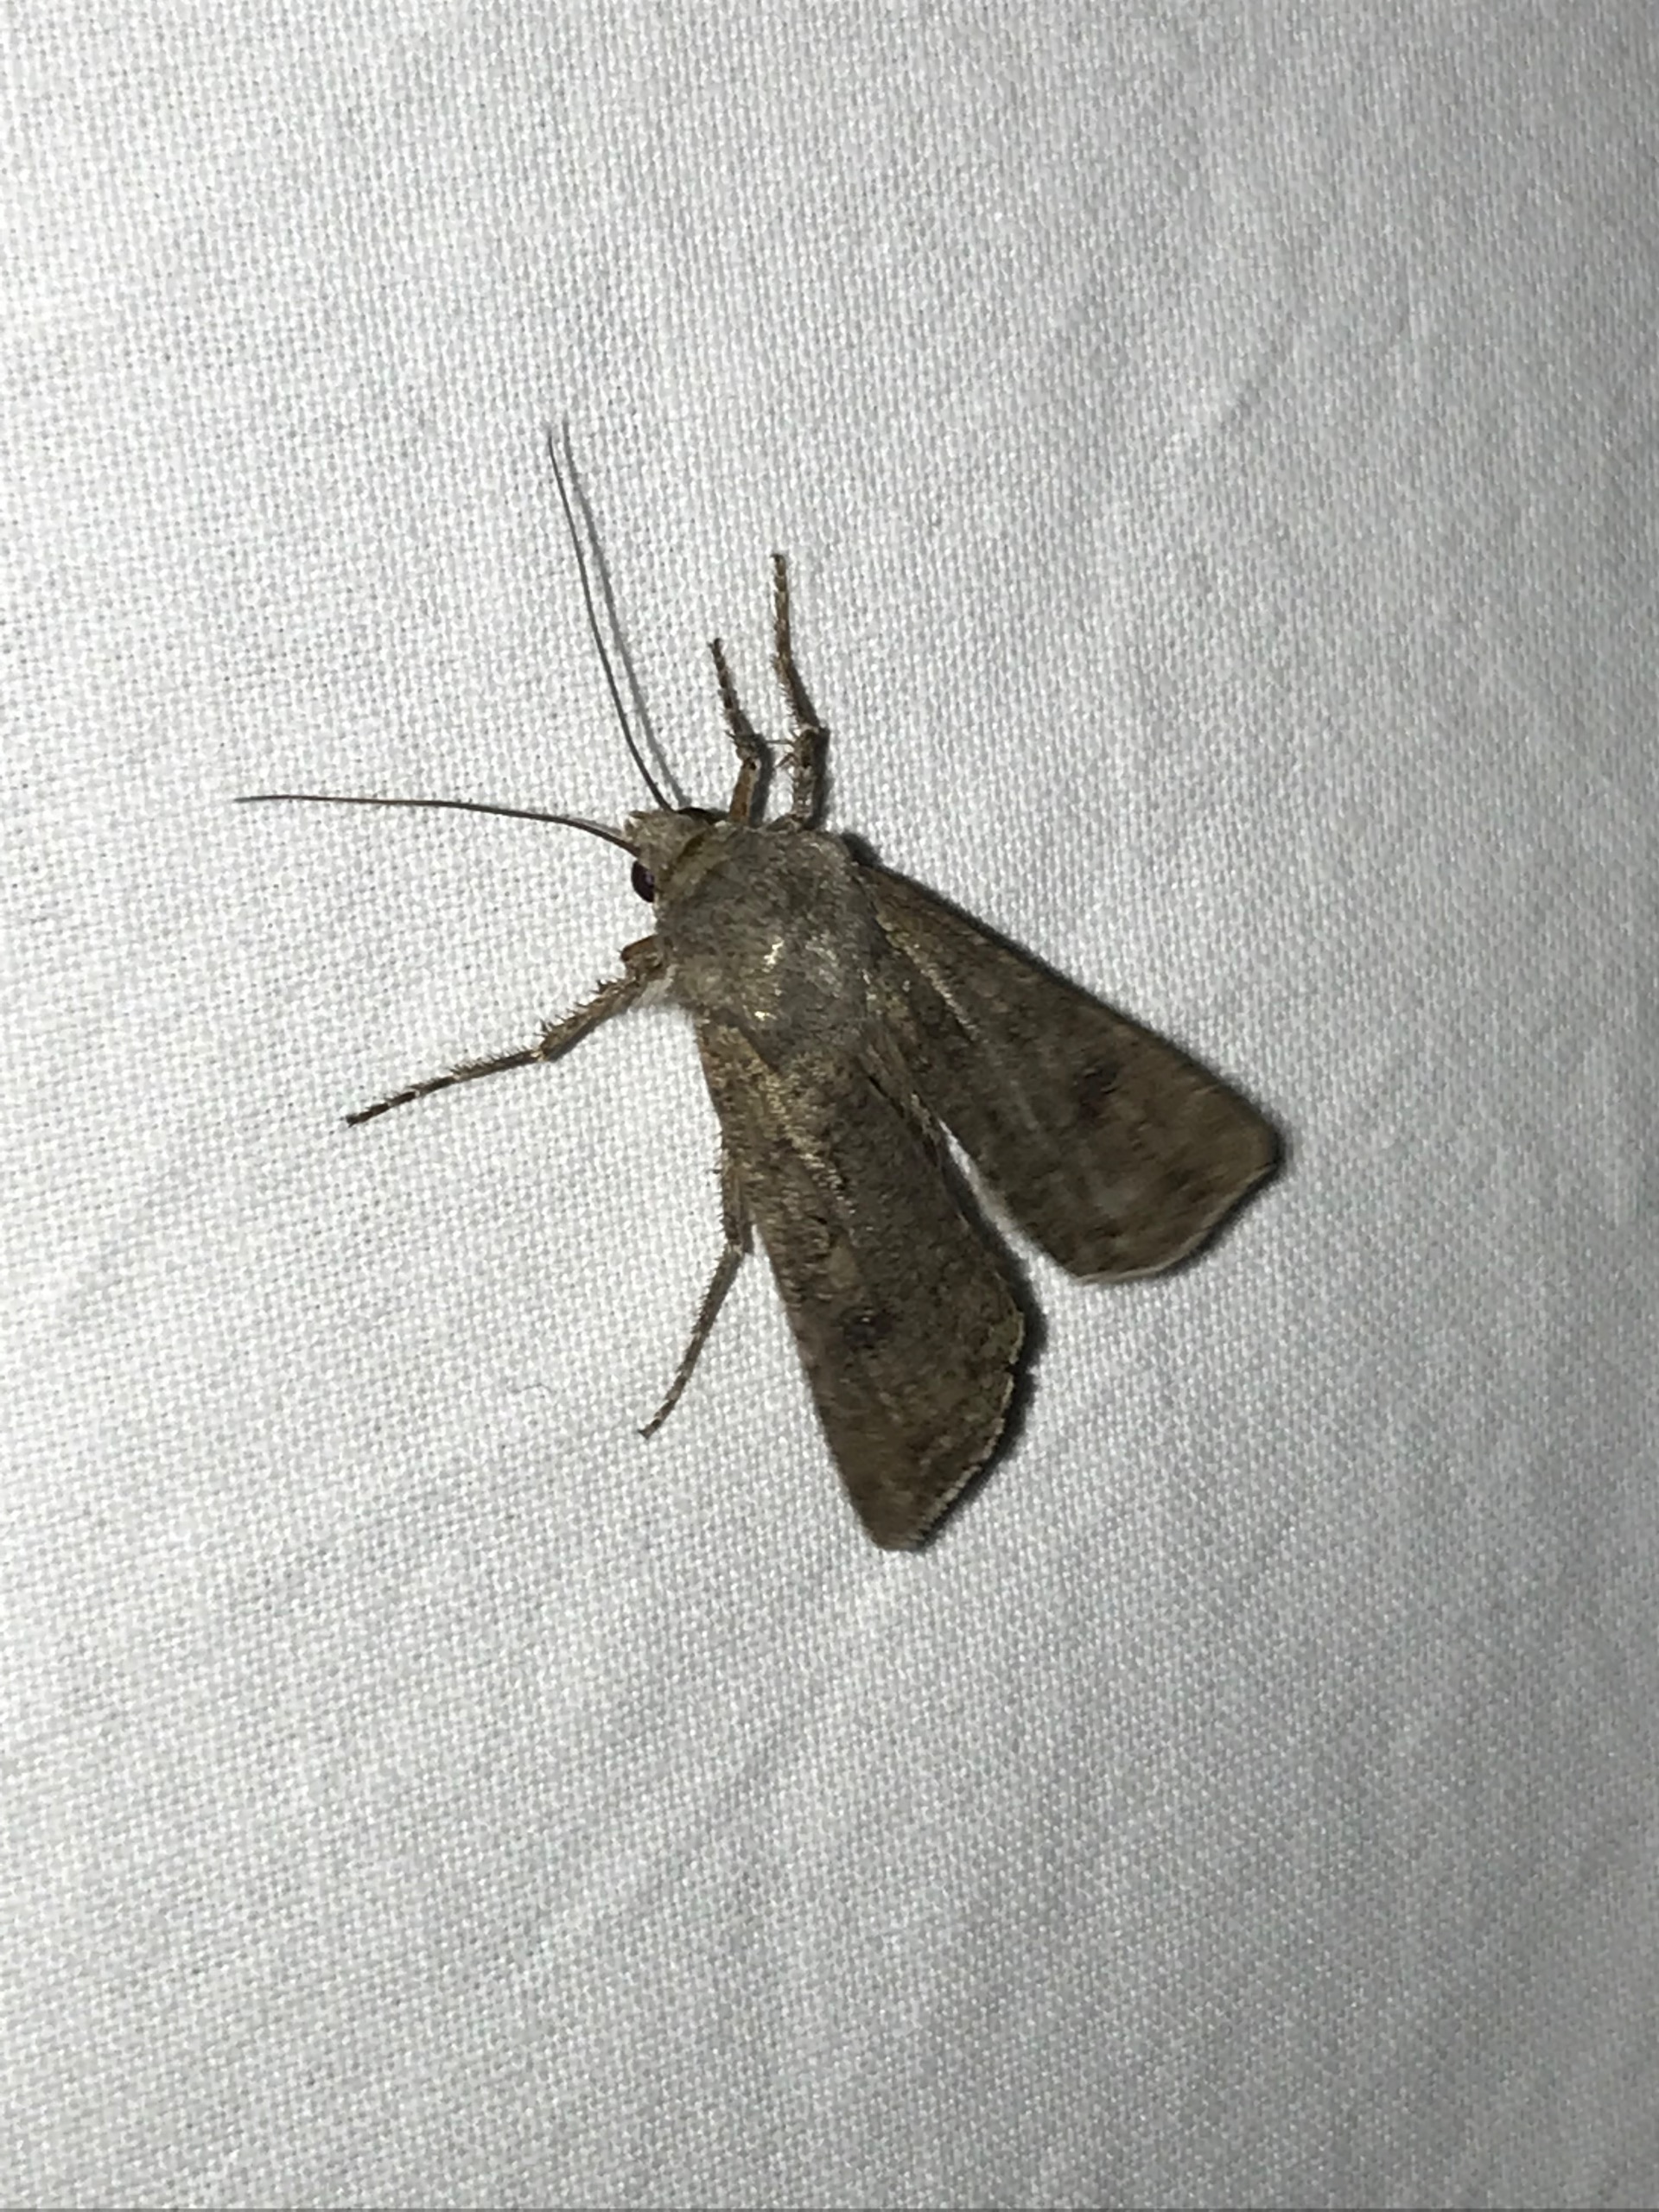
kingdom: Animalia
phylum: Arthropoda
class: Insecta
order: Lepidoptera
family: Noctuidae
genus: Agrotis
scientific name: Agrotis segetum
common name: Agerugle
